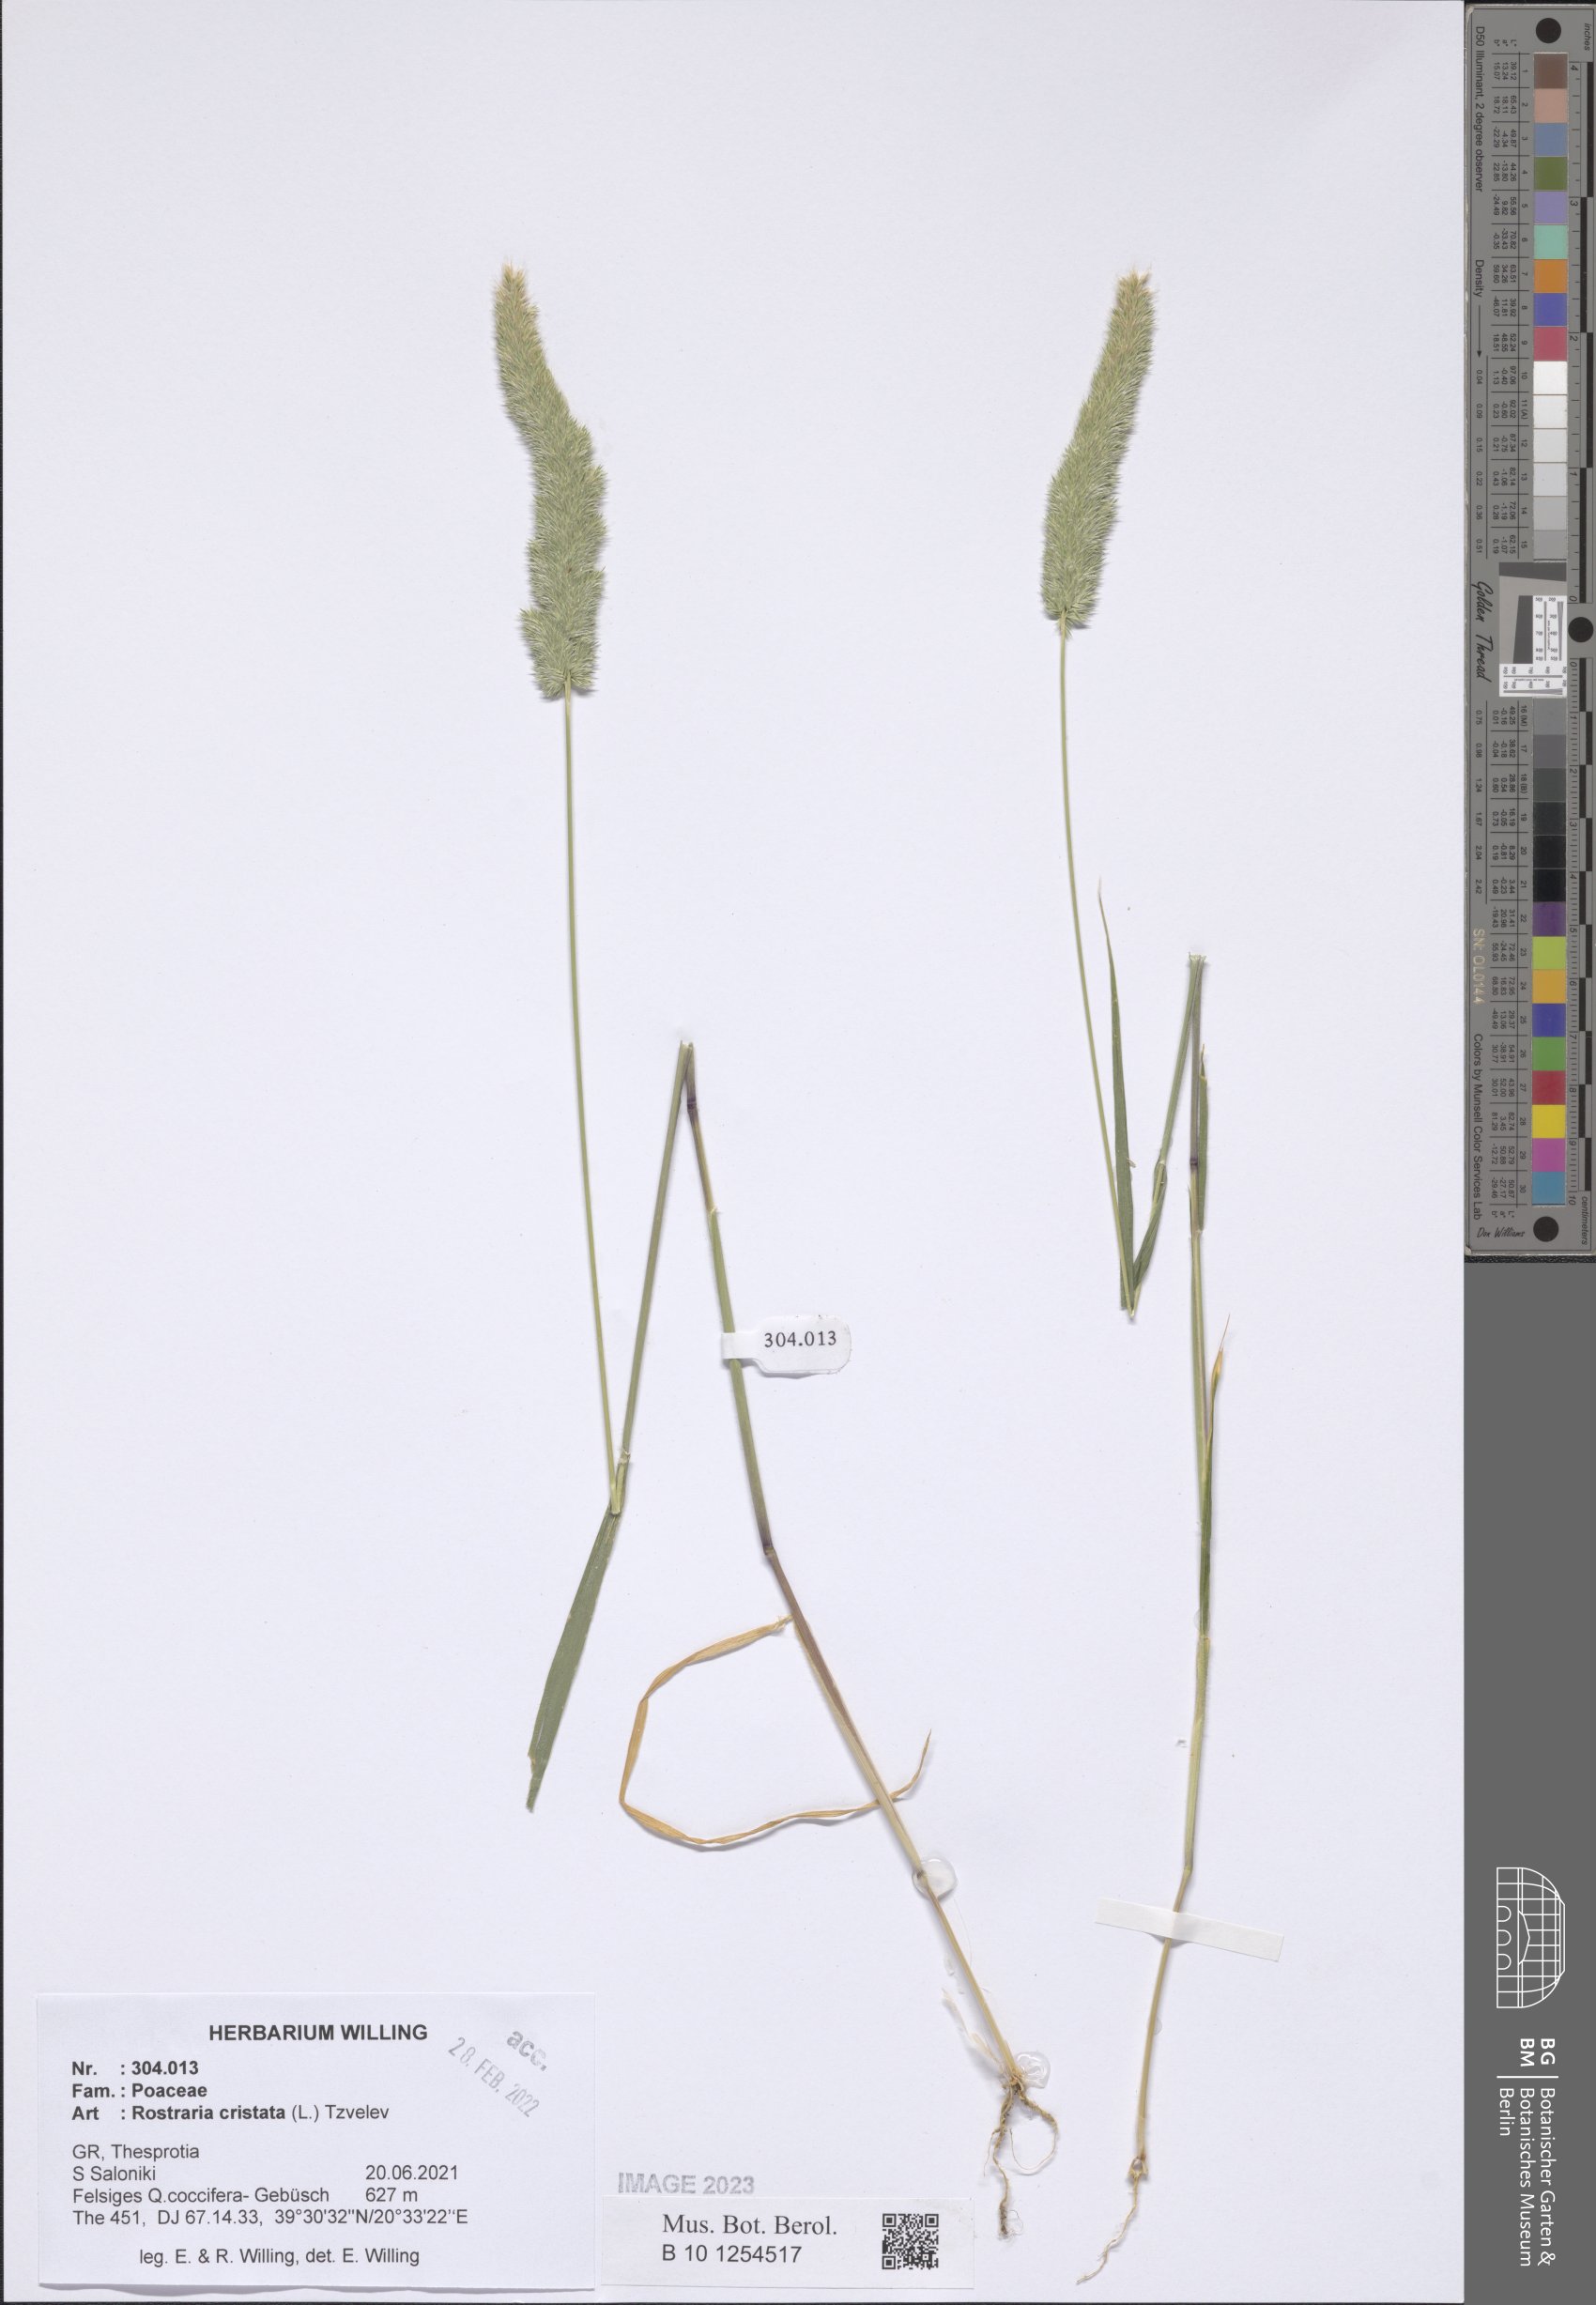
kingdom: Plantae
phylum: Tracheophyta
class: Liliopsida
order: Poales
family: Poaceae
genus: Rostraria
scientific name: Rostraria cristata
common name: Mediterranean hair-grass
